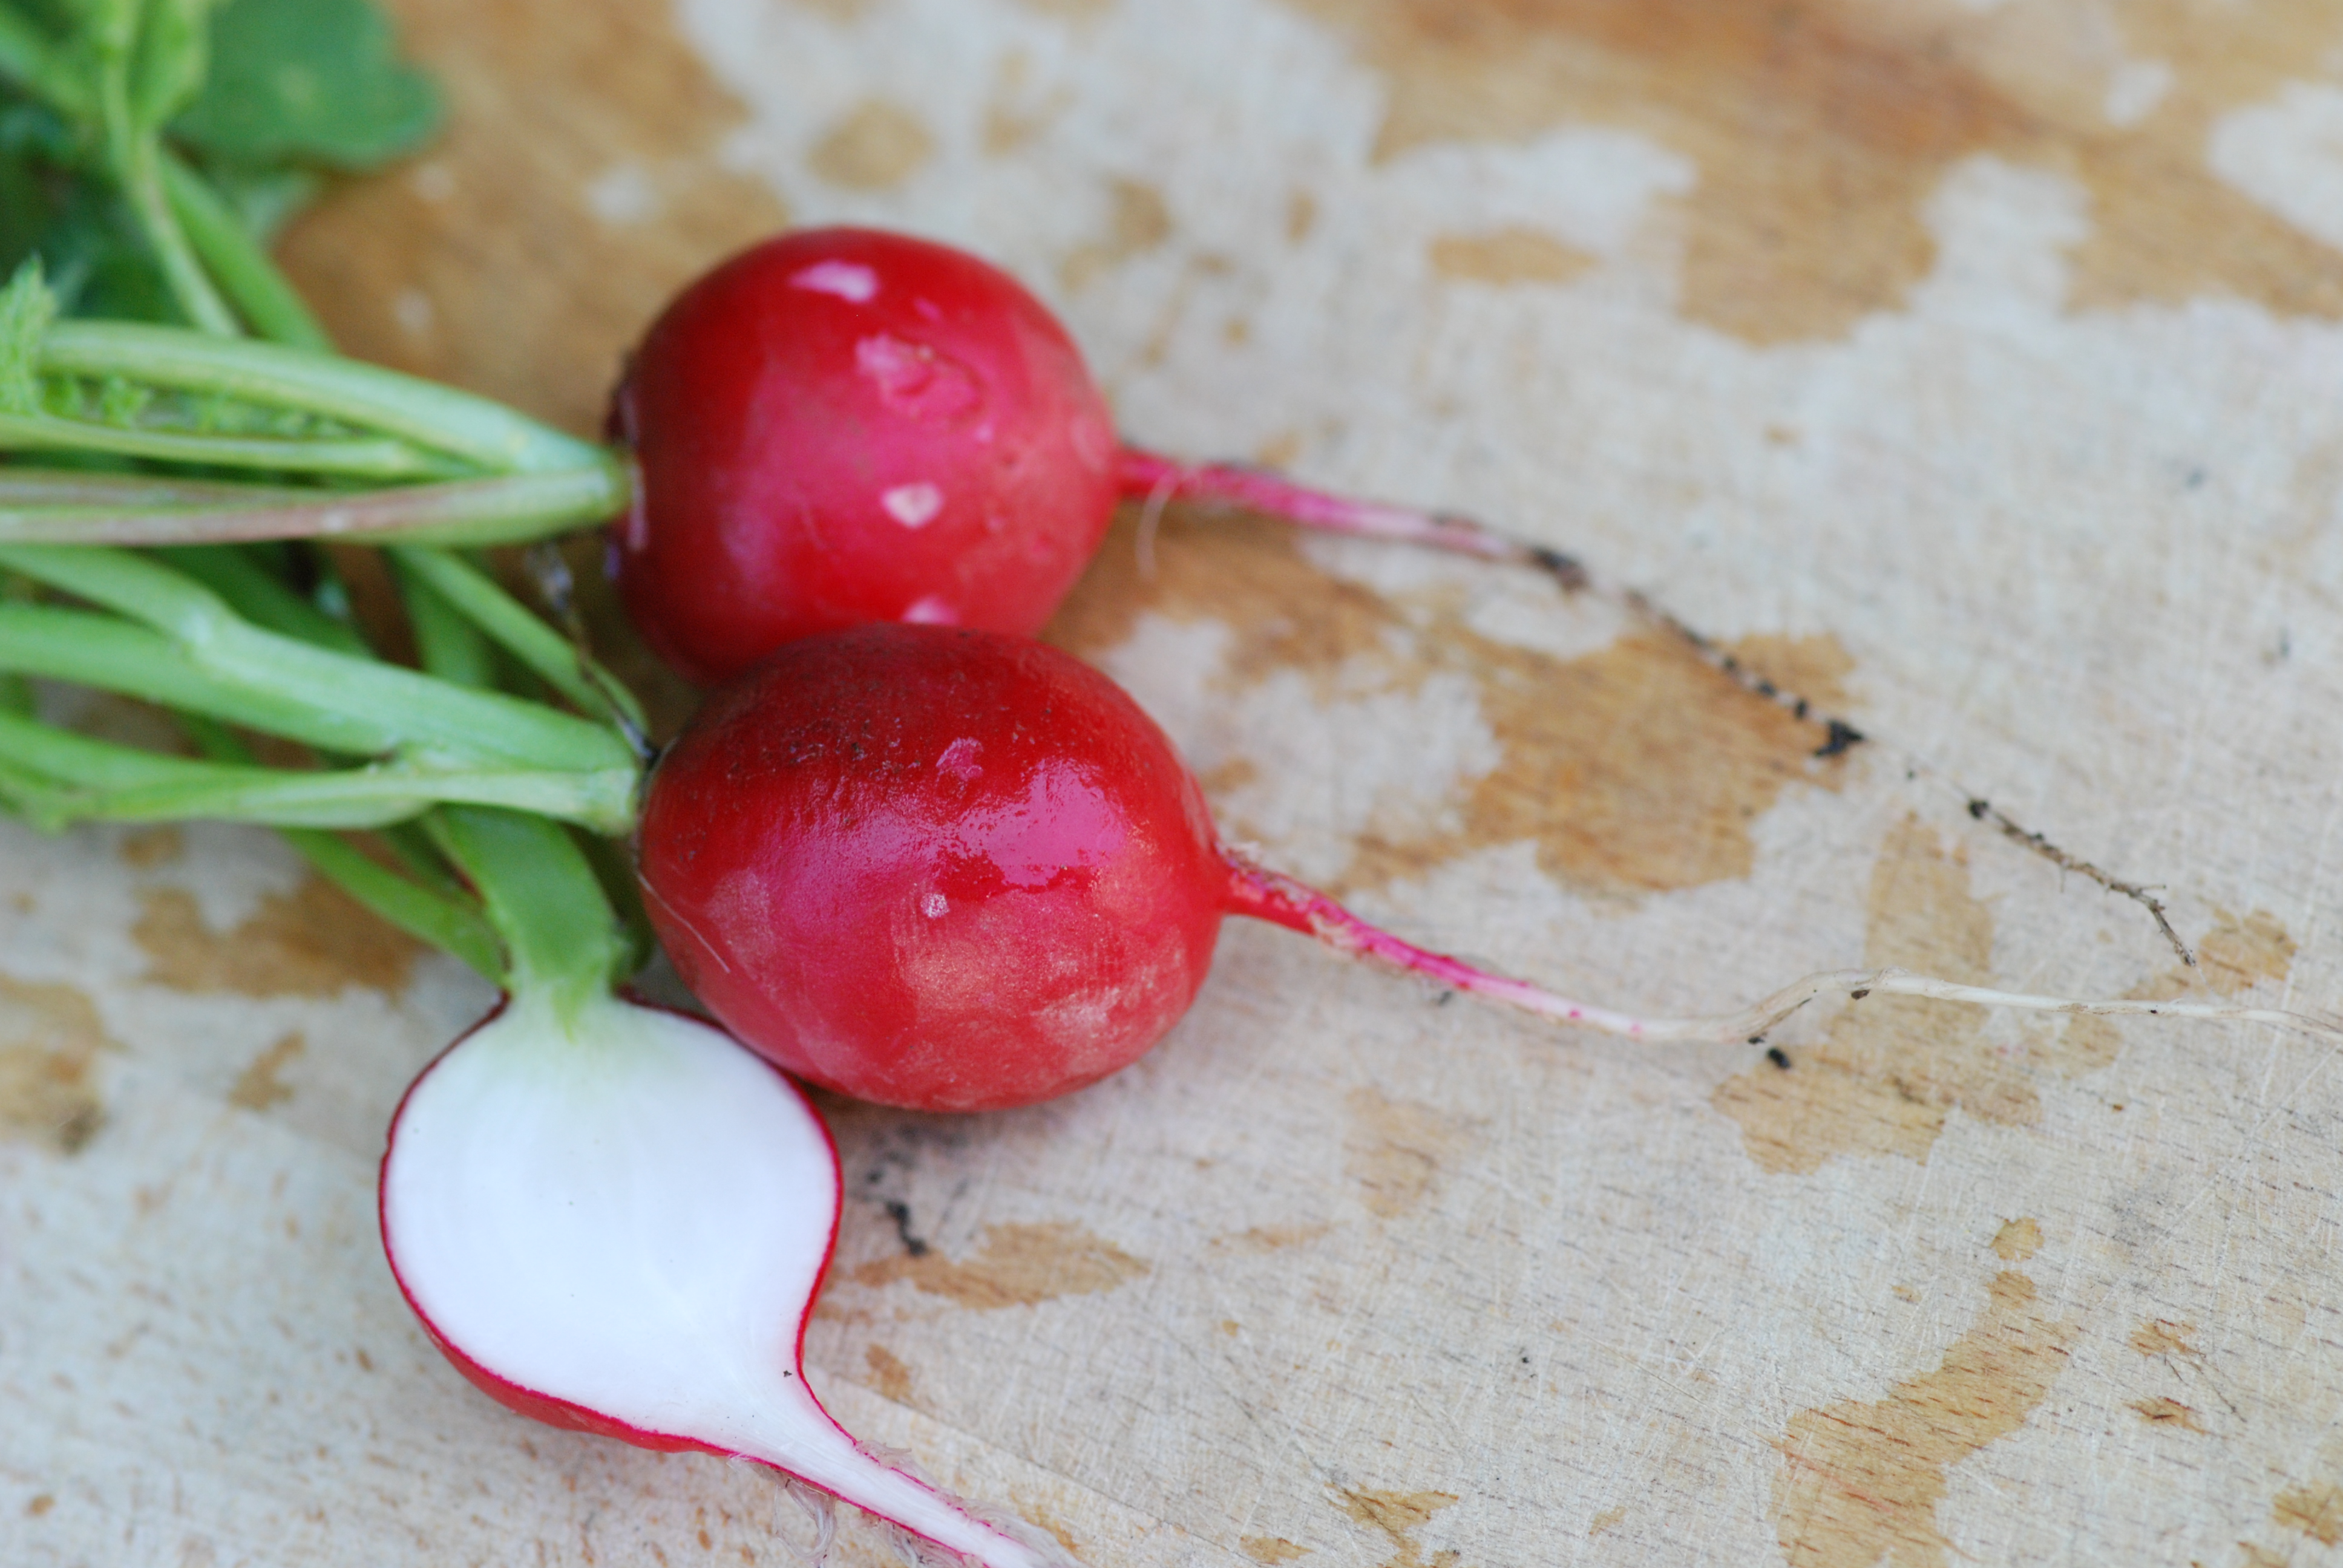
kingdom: Plantae
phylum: Tracheophyta
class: Magnoliopsida
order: Brassicales
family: Brassicaceae
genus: Raphanus
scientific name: Raphanus sativus
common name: Cultivated radish
